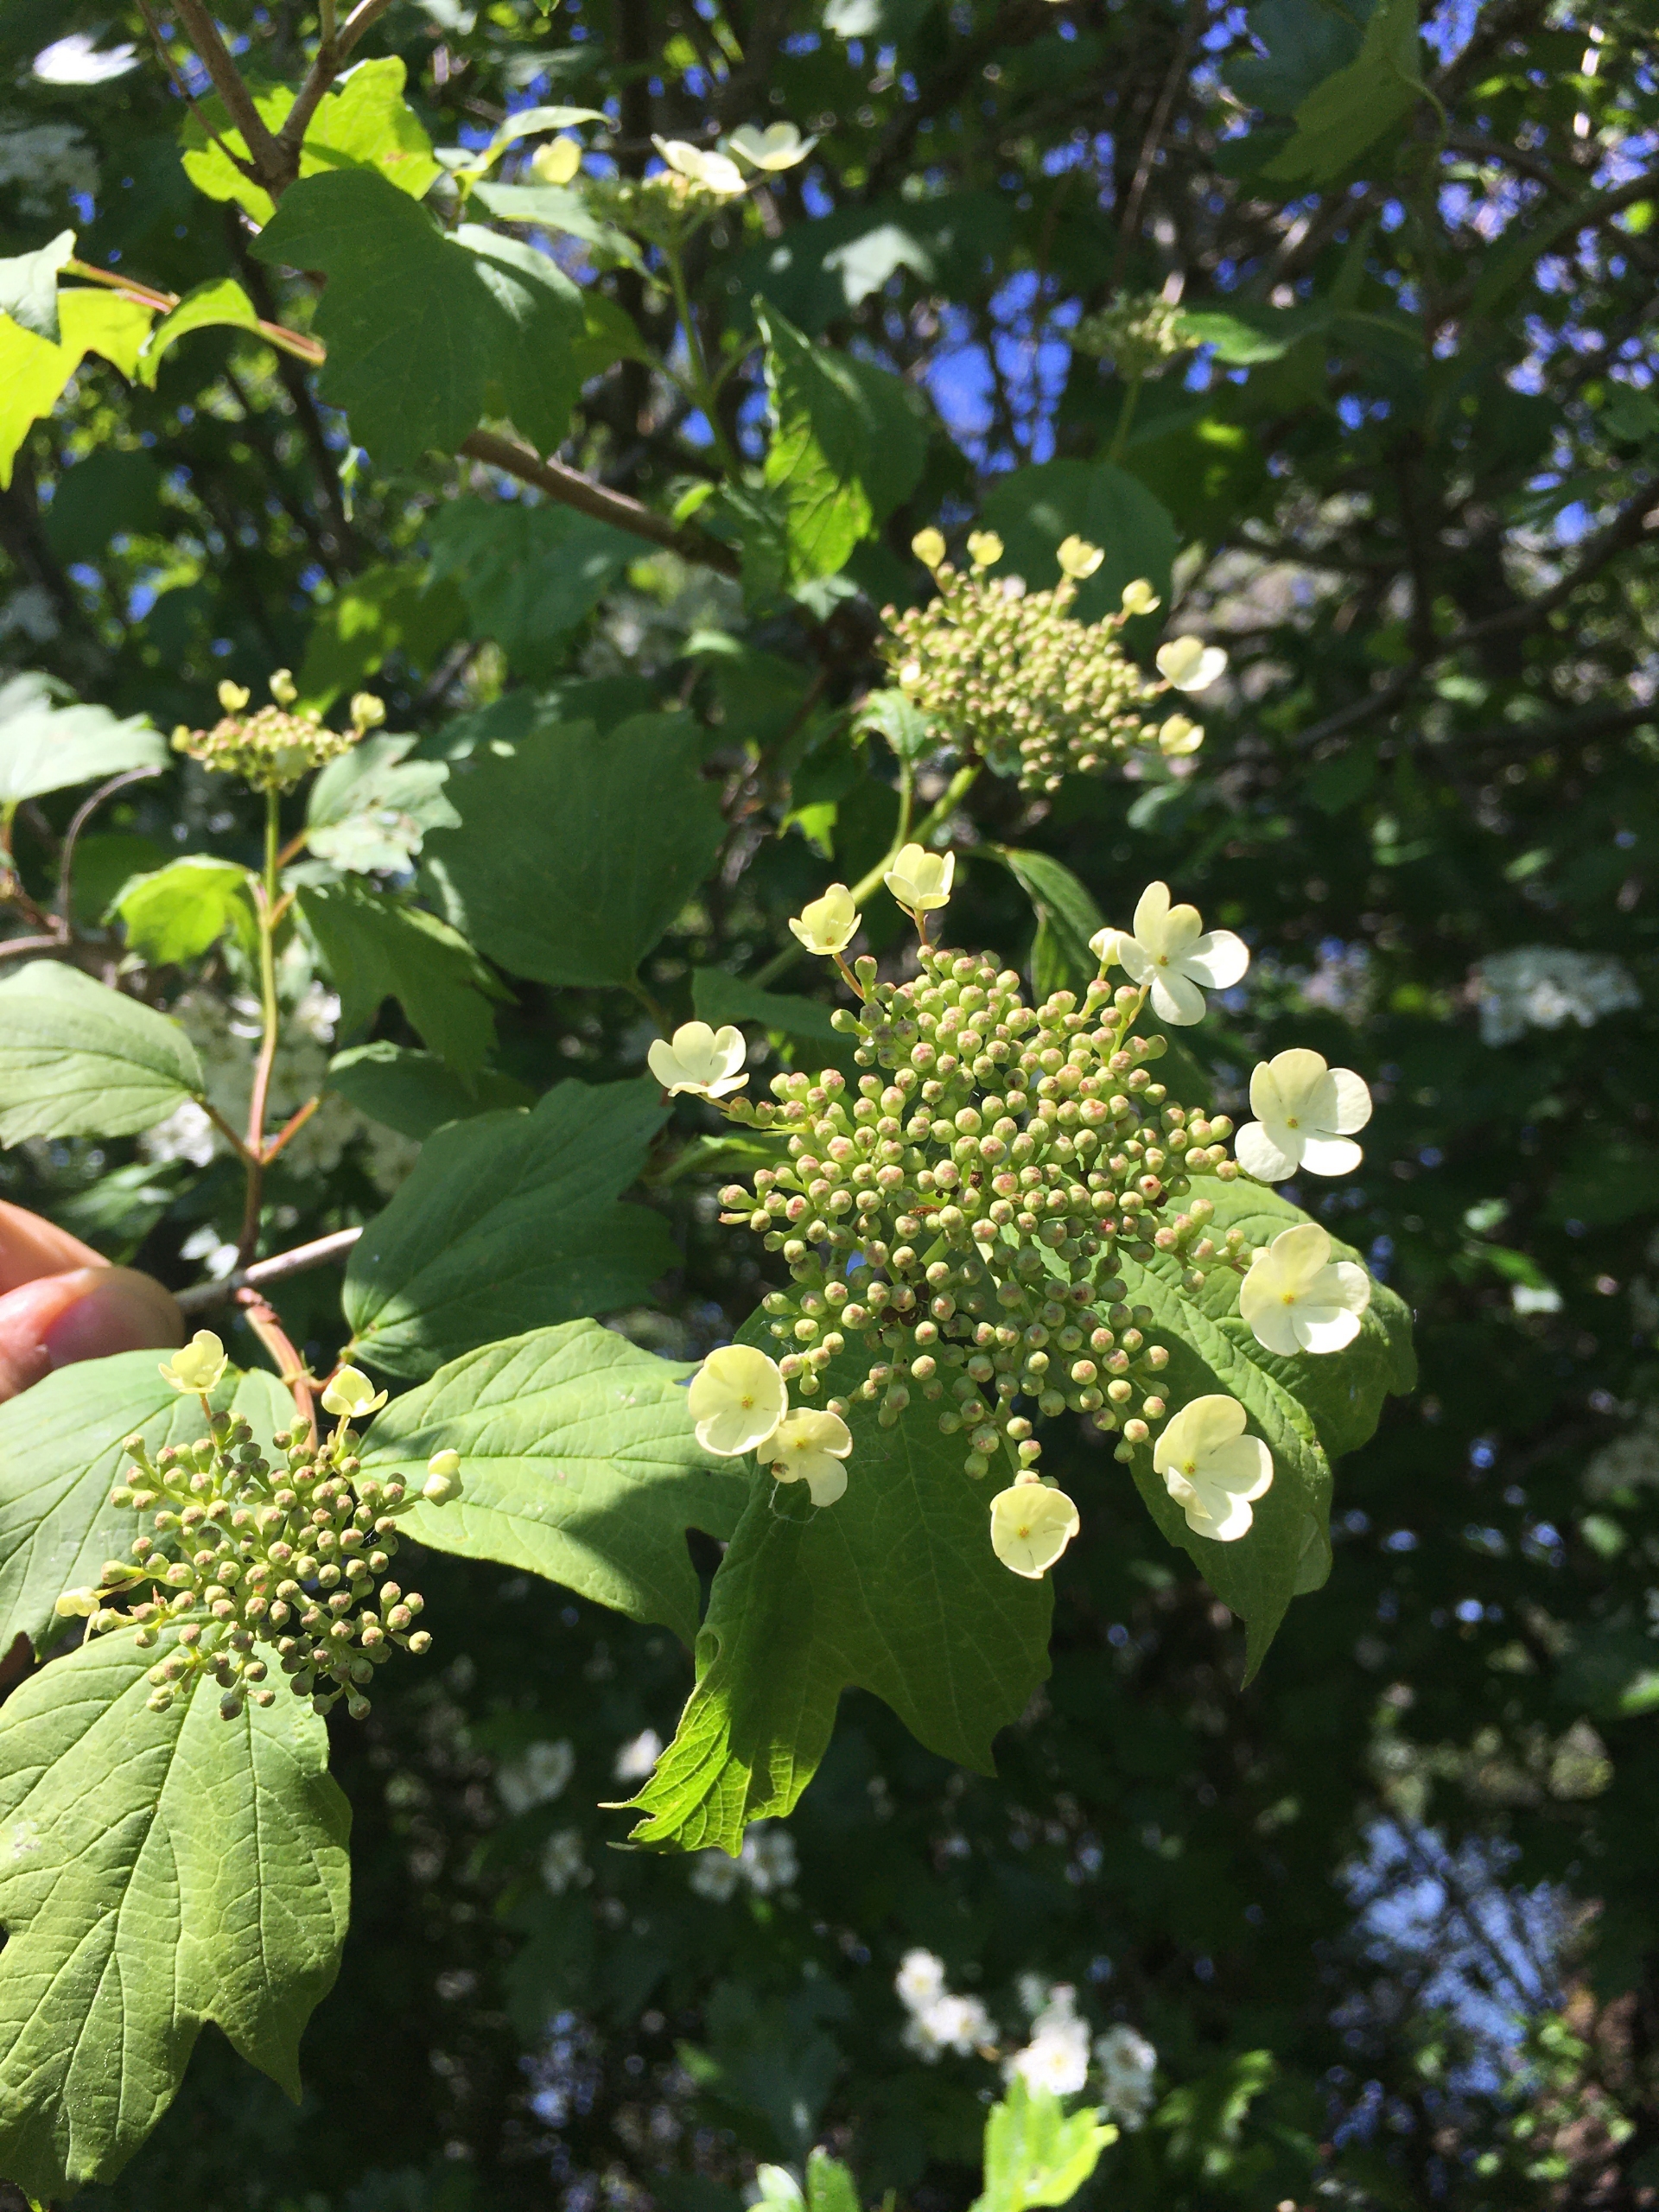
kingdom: Plantae
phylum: Tracheophyta
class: Magnoliopsida
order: Dipsacales
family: Viburnaceae
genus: Viburnum
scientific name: Viburnum opulus
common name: Kvalkved
